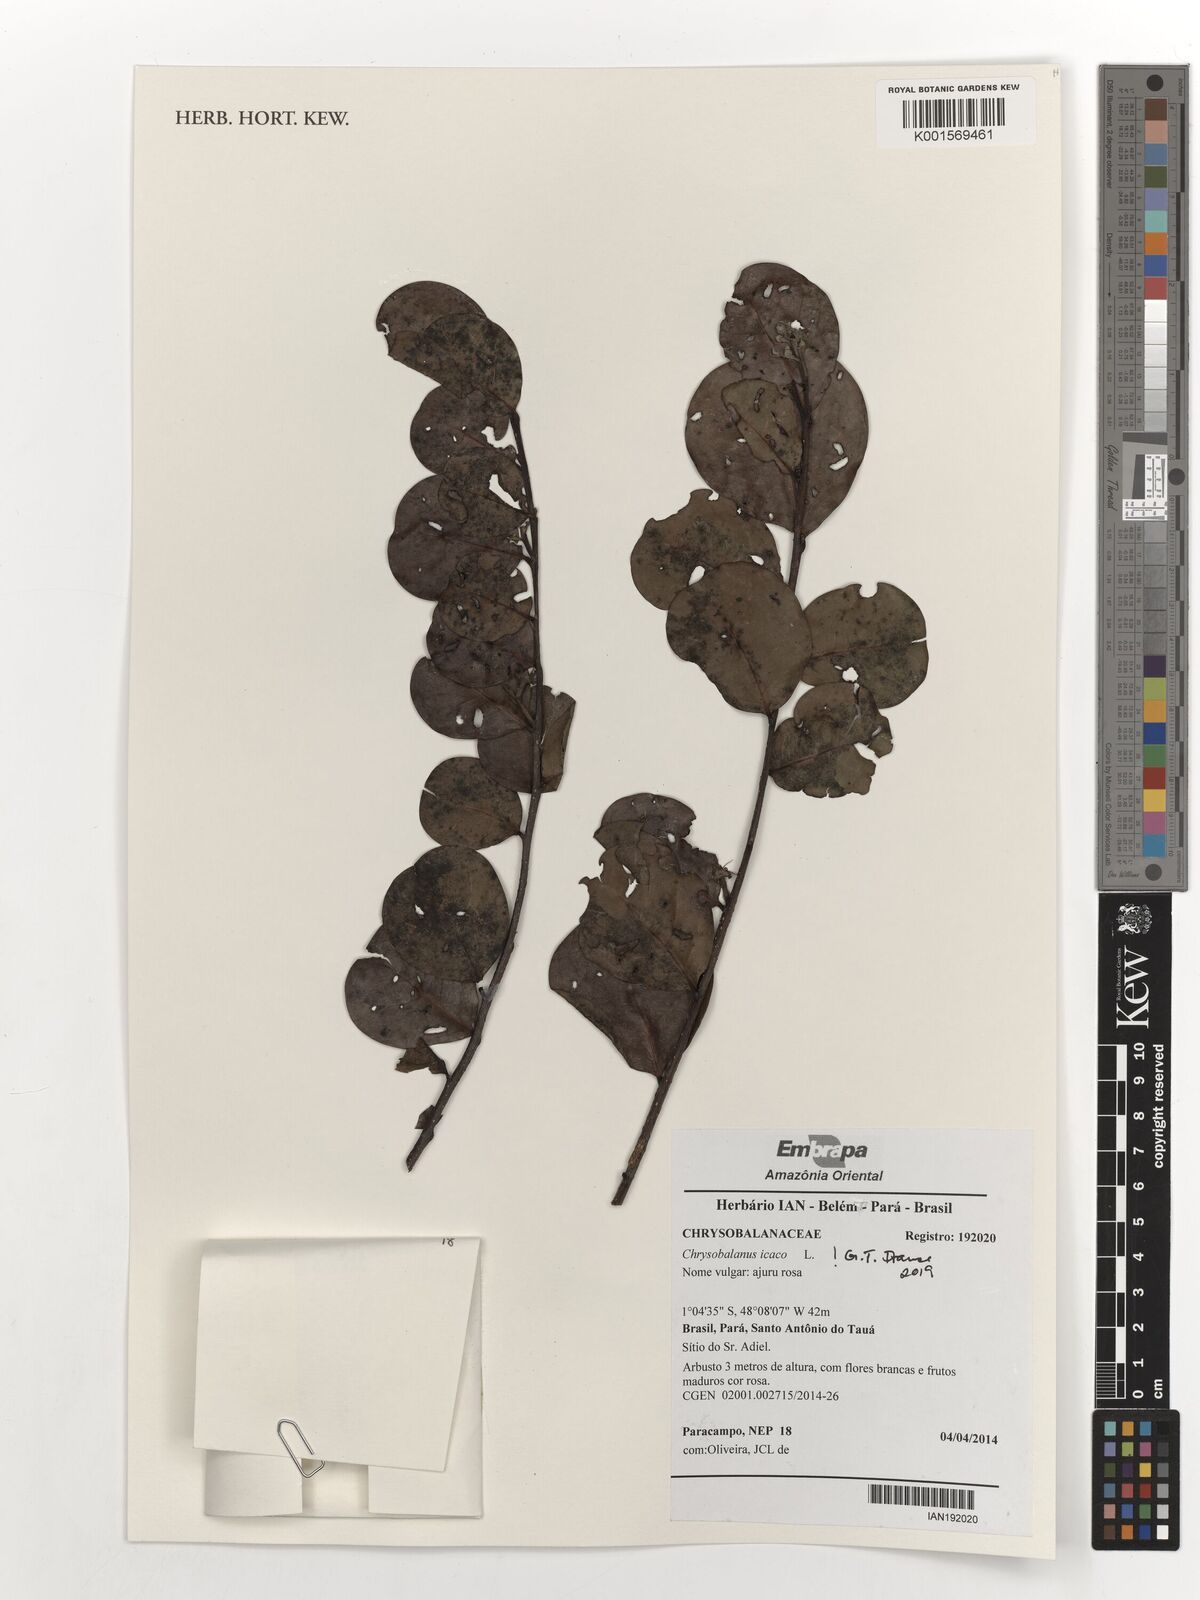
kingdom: Plantae
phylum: Tracheophyta
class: Magnoliopsida
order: Malpighiales
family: Chrysobalanaceae
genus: Chrysobalanus
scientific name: Chrysobalanus icaco
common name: Coco plum
